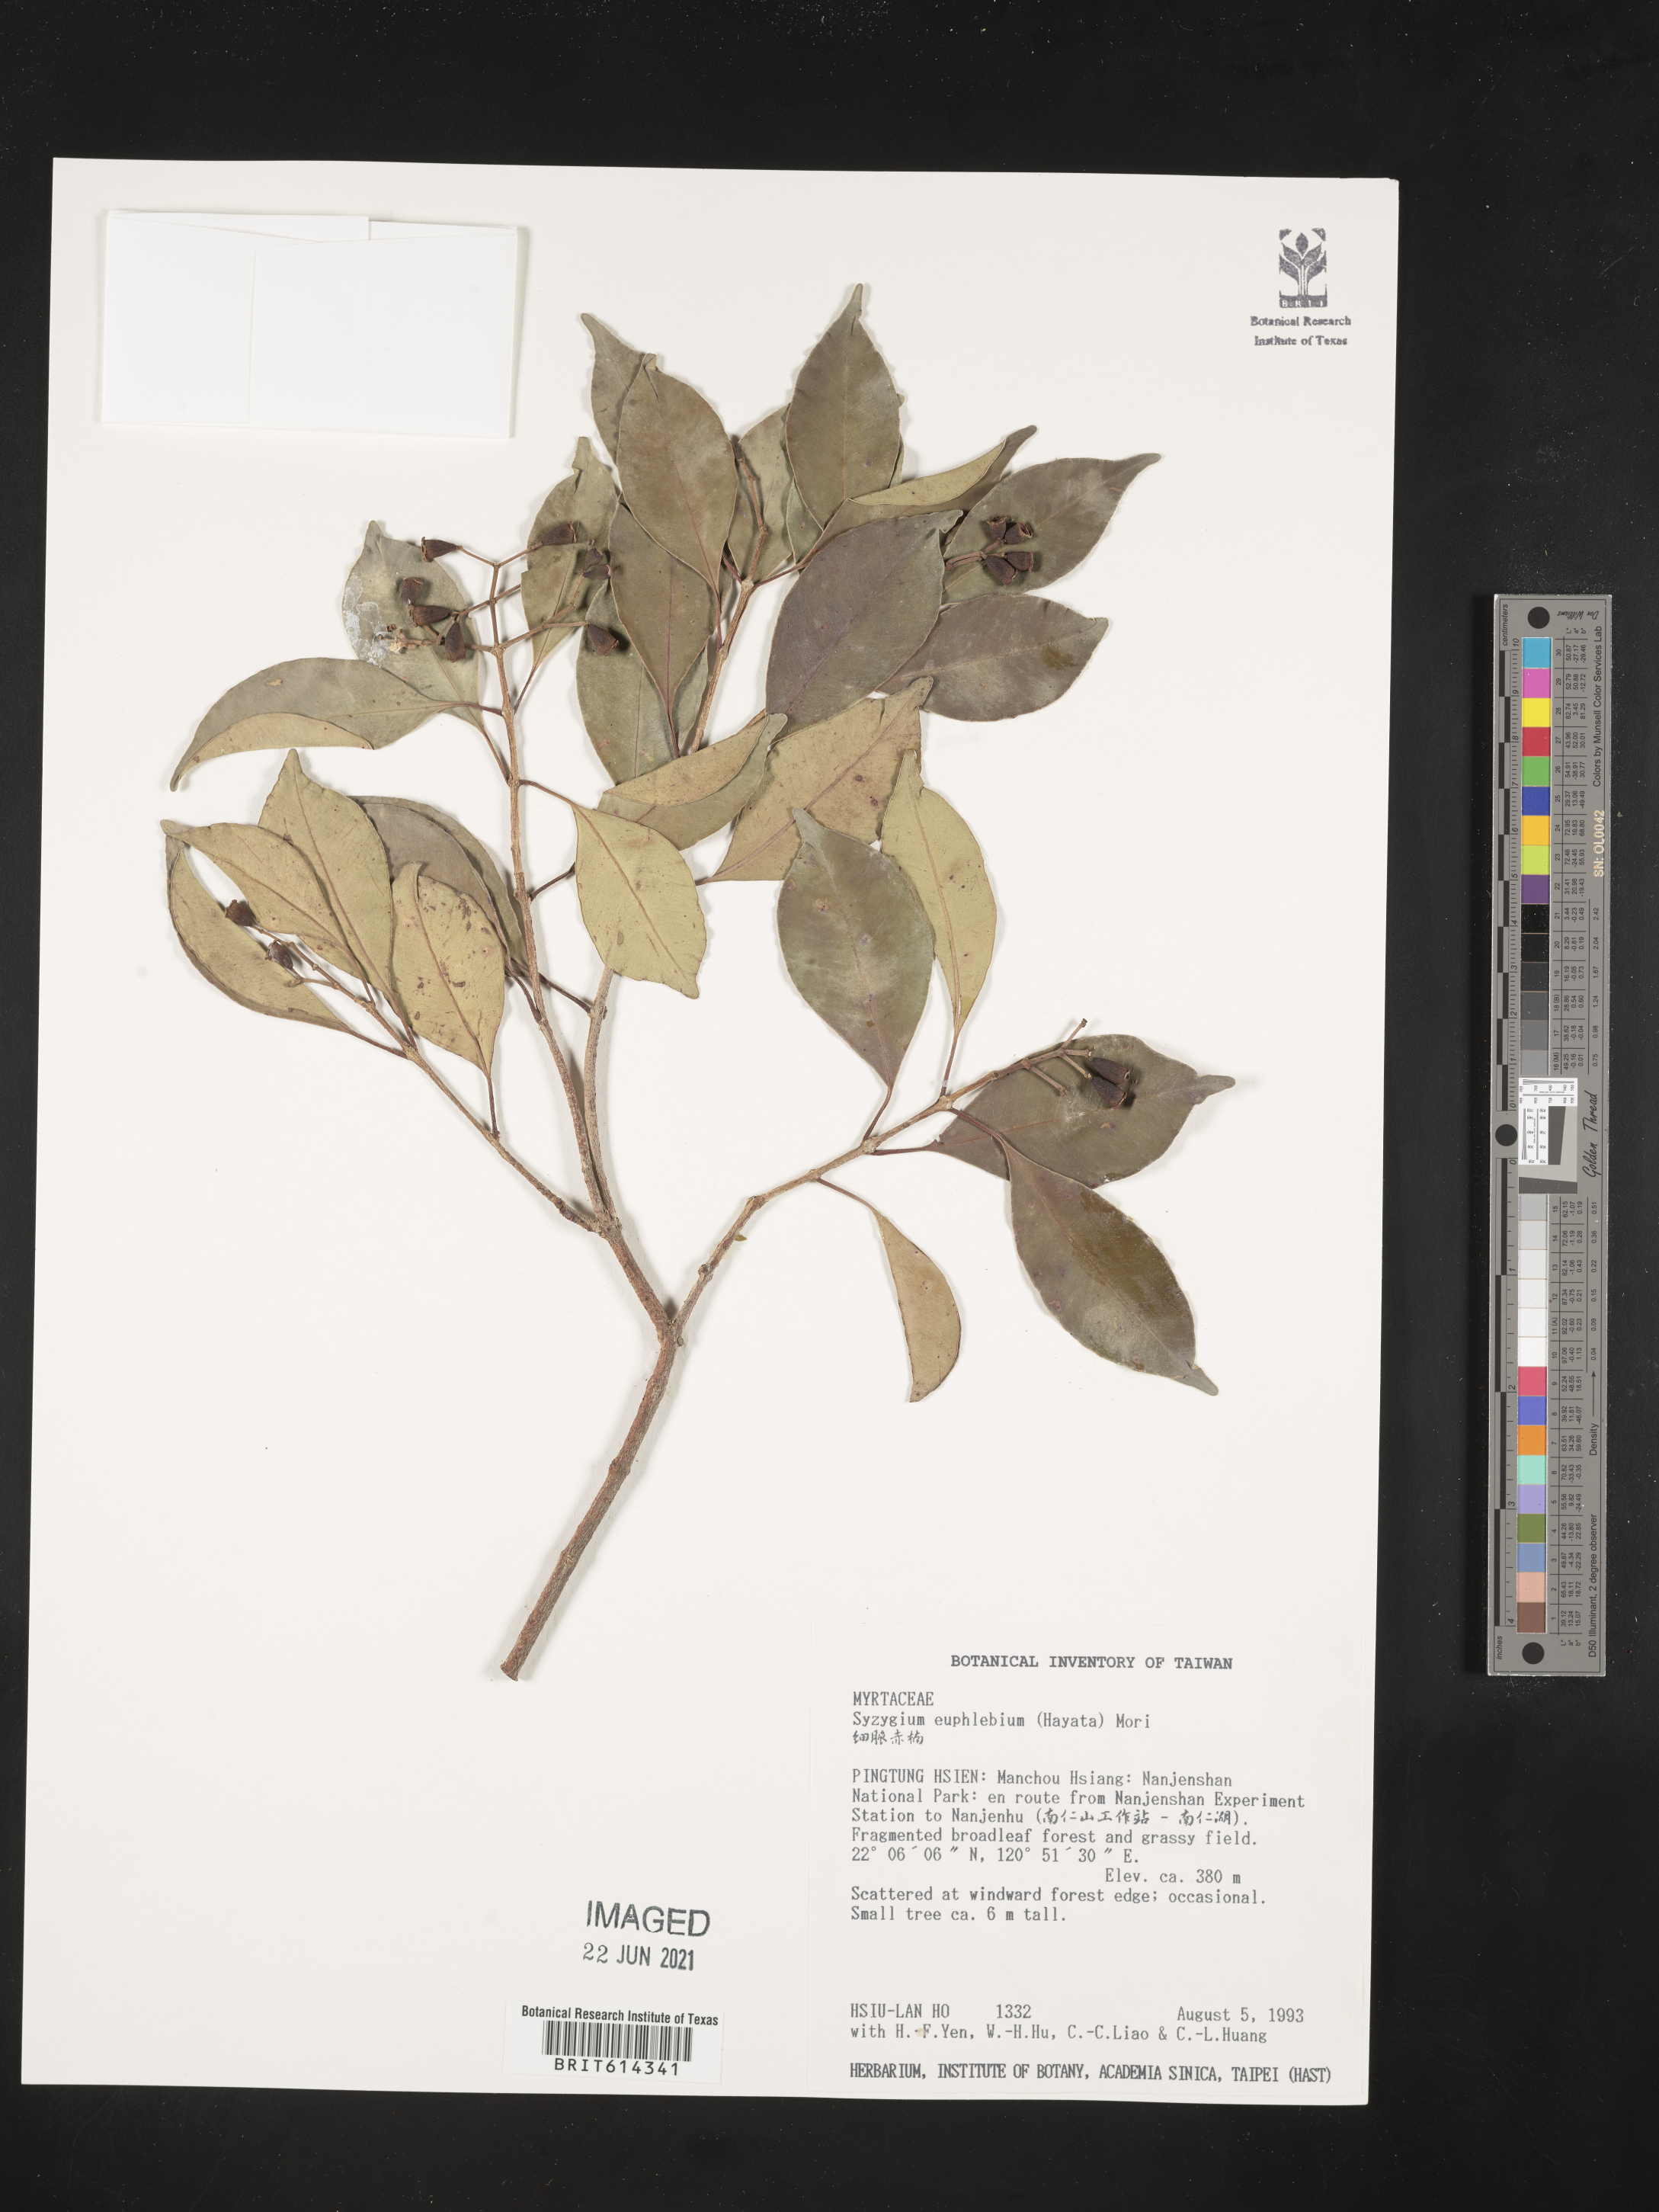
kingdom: Plantae
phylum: Tracheophyta
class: Magnoliopsida
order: Myrtales
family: Myrtaceae
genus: Syzygium
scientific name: Syzygium euphlebium
